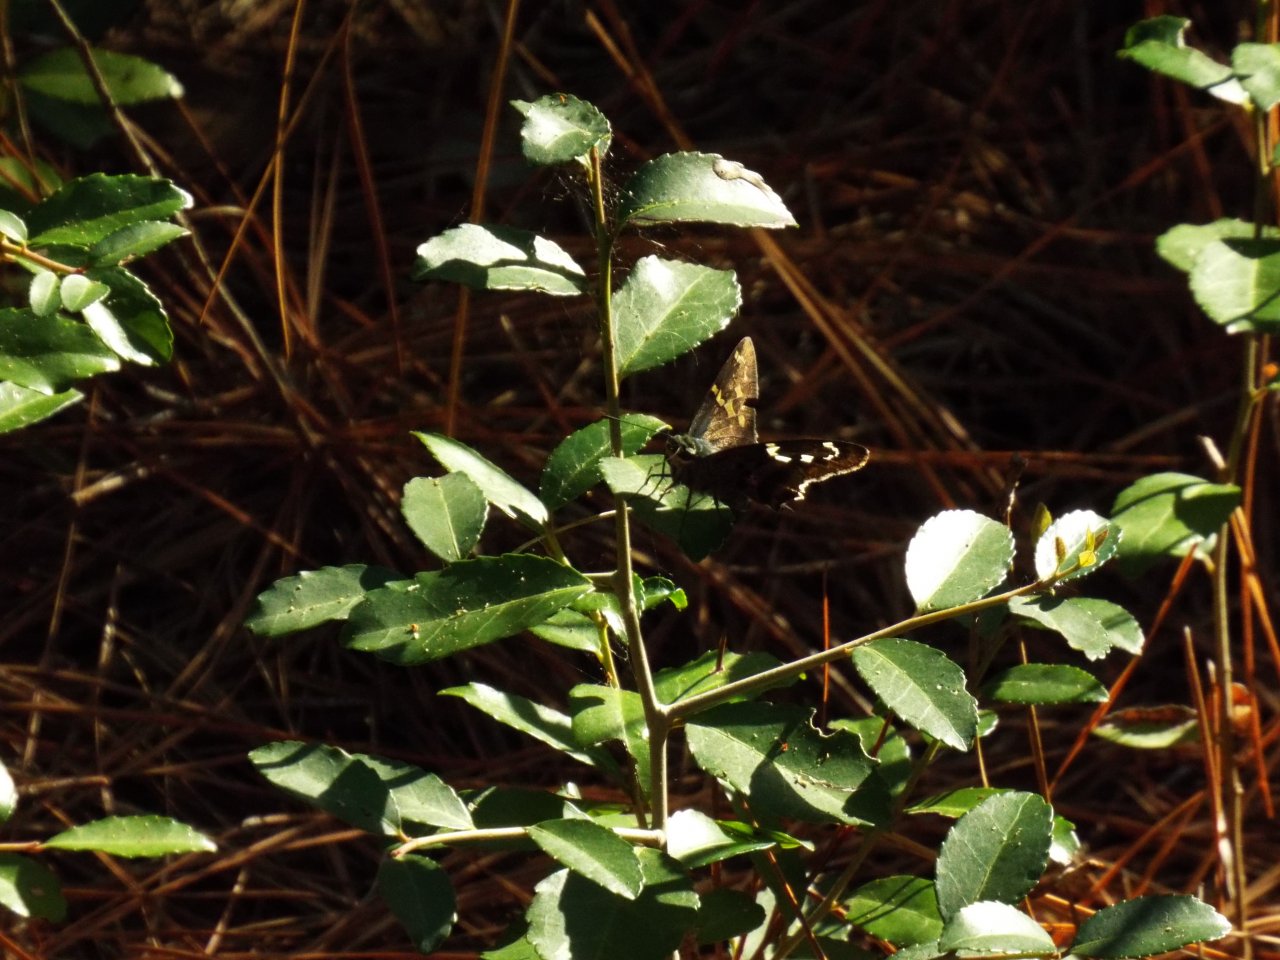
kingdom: Animalia
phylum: Arthropoda
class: Insecta
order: Lepidoptera
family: Hesperiidae
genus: Urbanus
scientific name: Urbanus proteus
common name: Long-tailed Skipper
